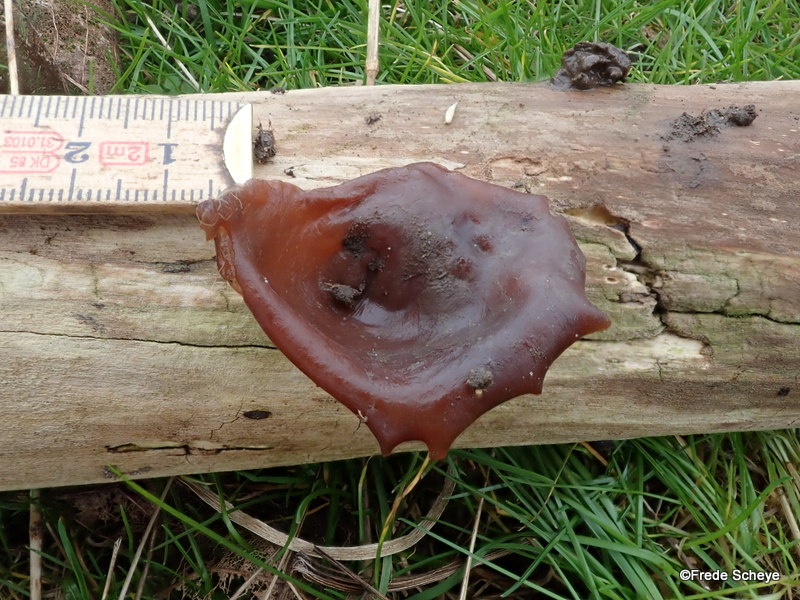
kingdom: Fungi
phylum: Basidiomycota
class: Agaricomycetes
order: Auriculariales
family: Auriculariaceae
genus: Auricularia
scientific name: Auricularia auricula-judae
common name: almindelig judasøre
